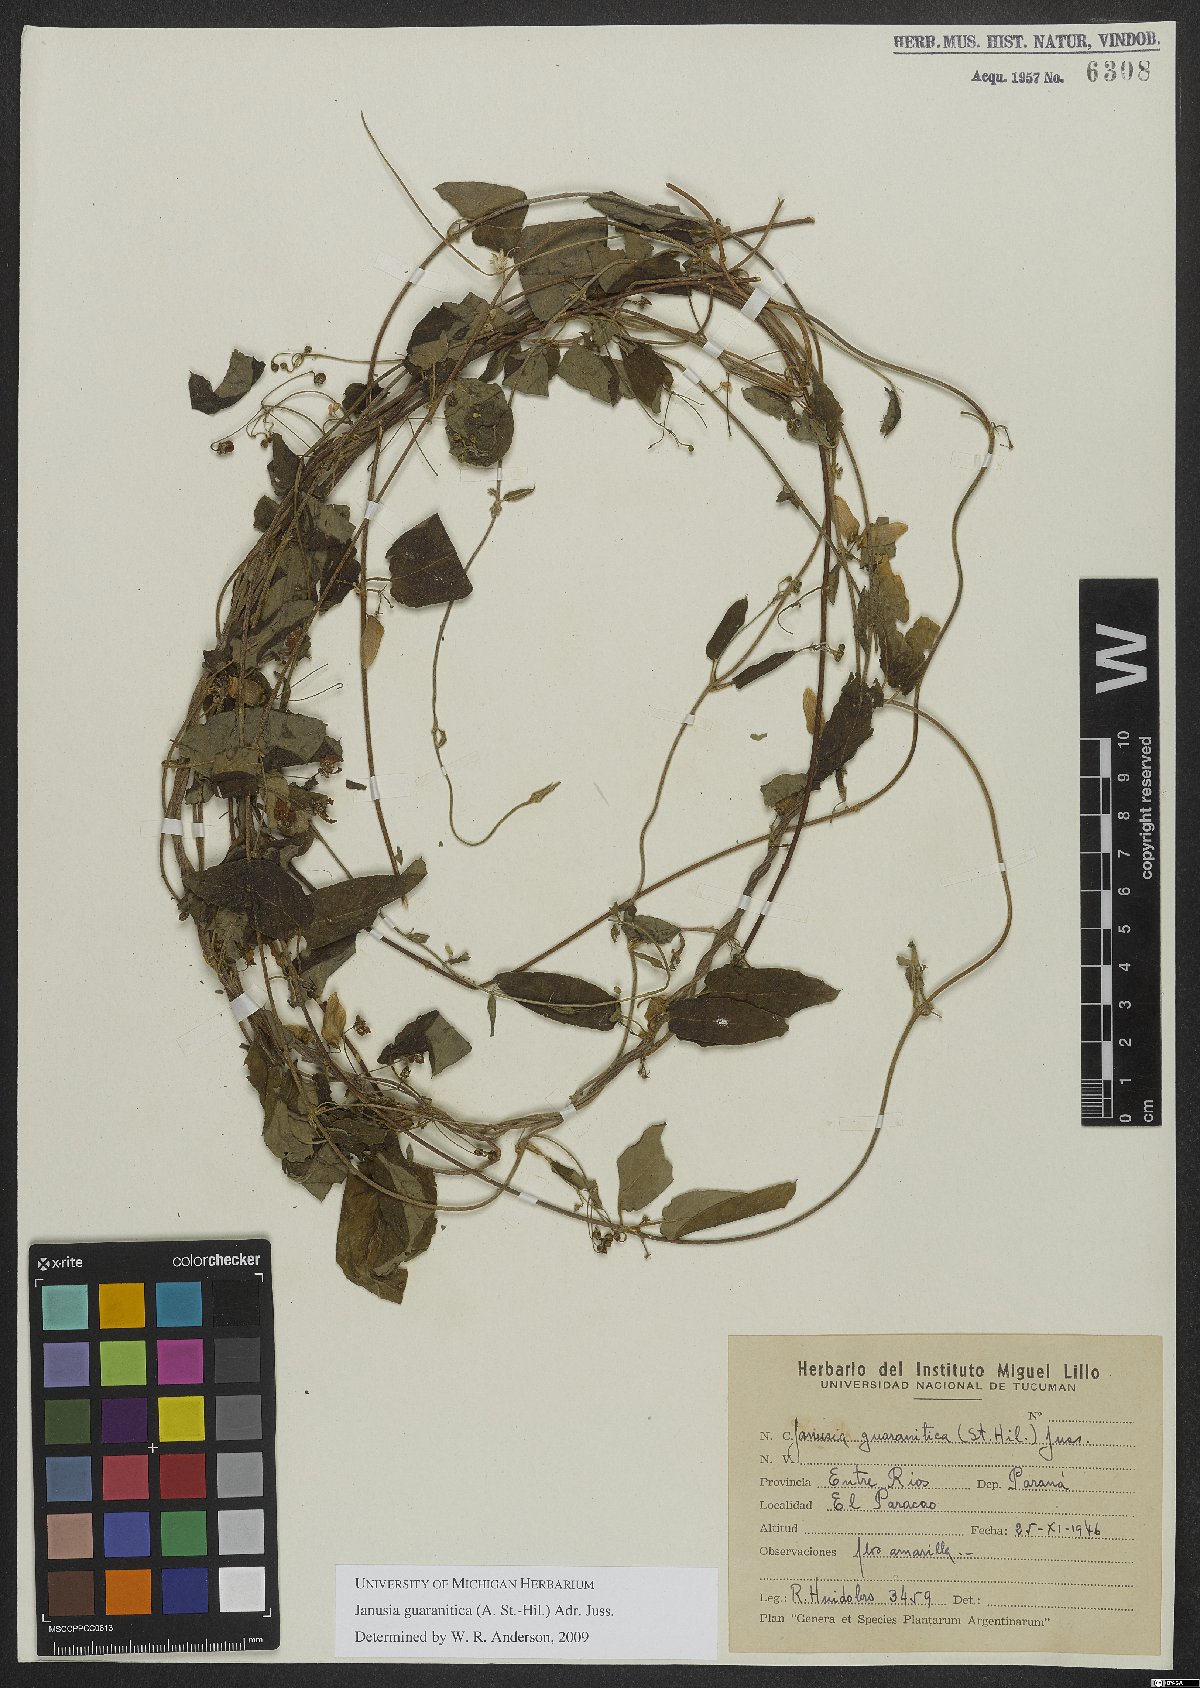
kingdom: Plantae
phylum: Tracheophyta
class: Magnoliopsida
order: Malpighiales
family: Malpighiaceae
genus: Janusia
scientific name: Janusia guaranitica
